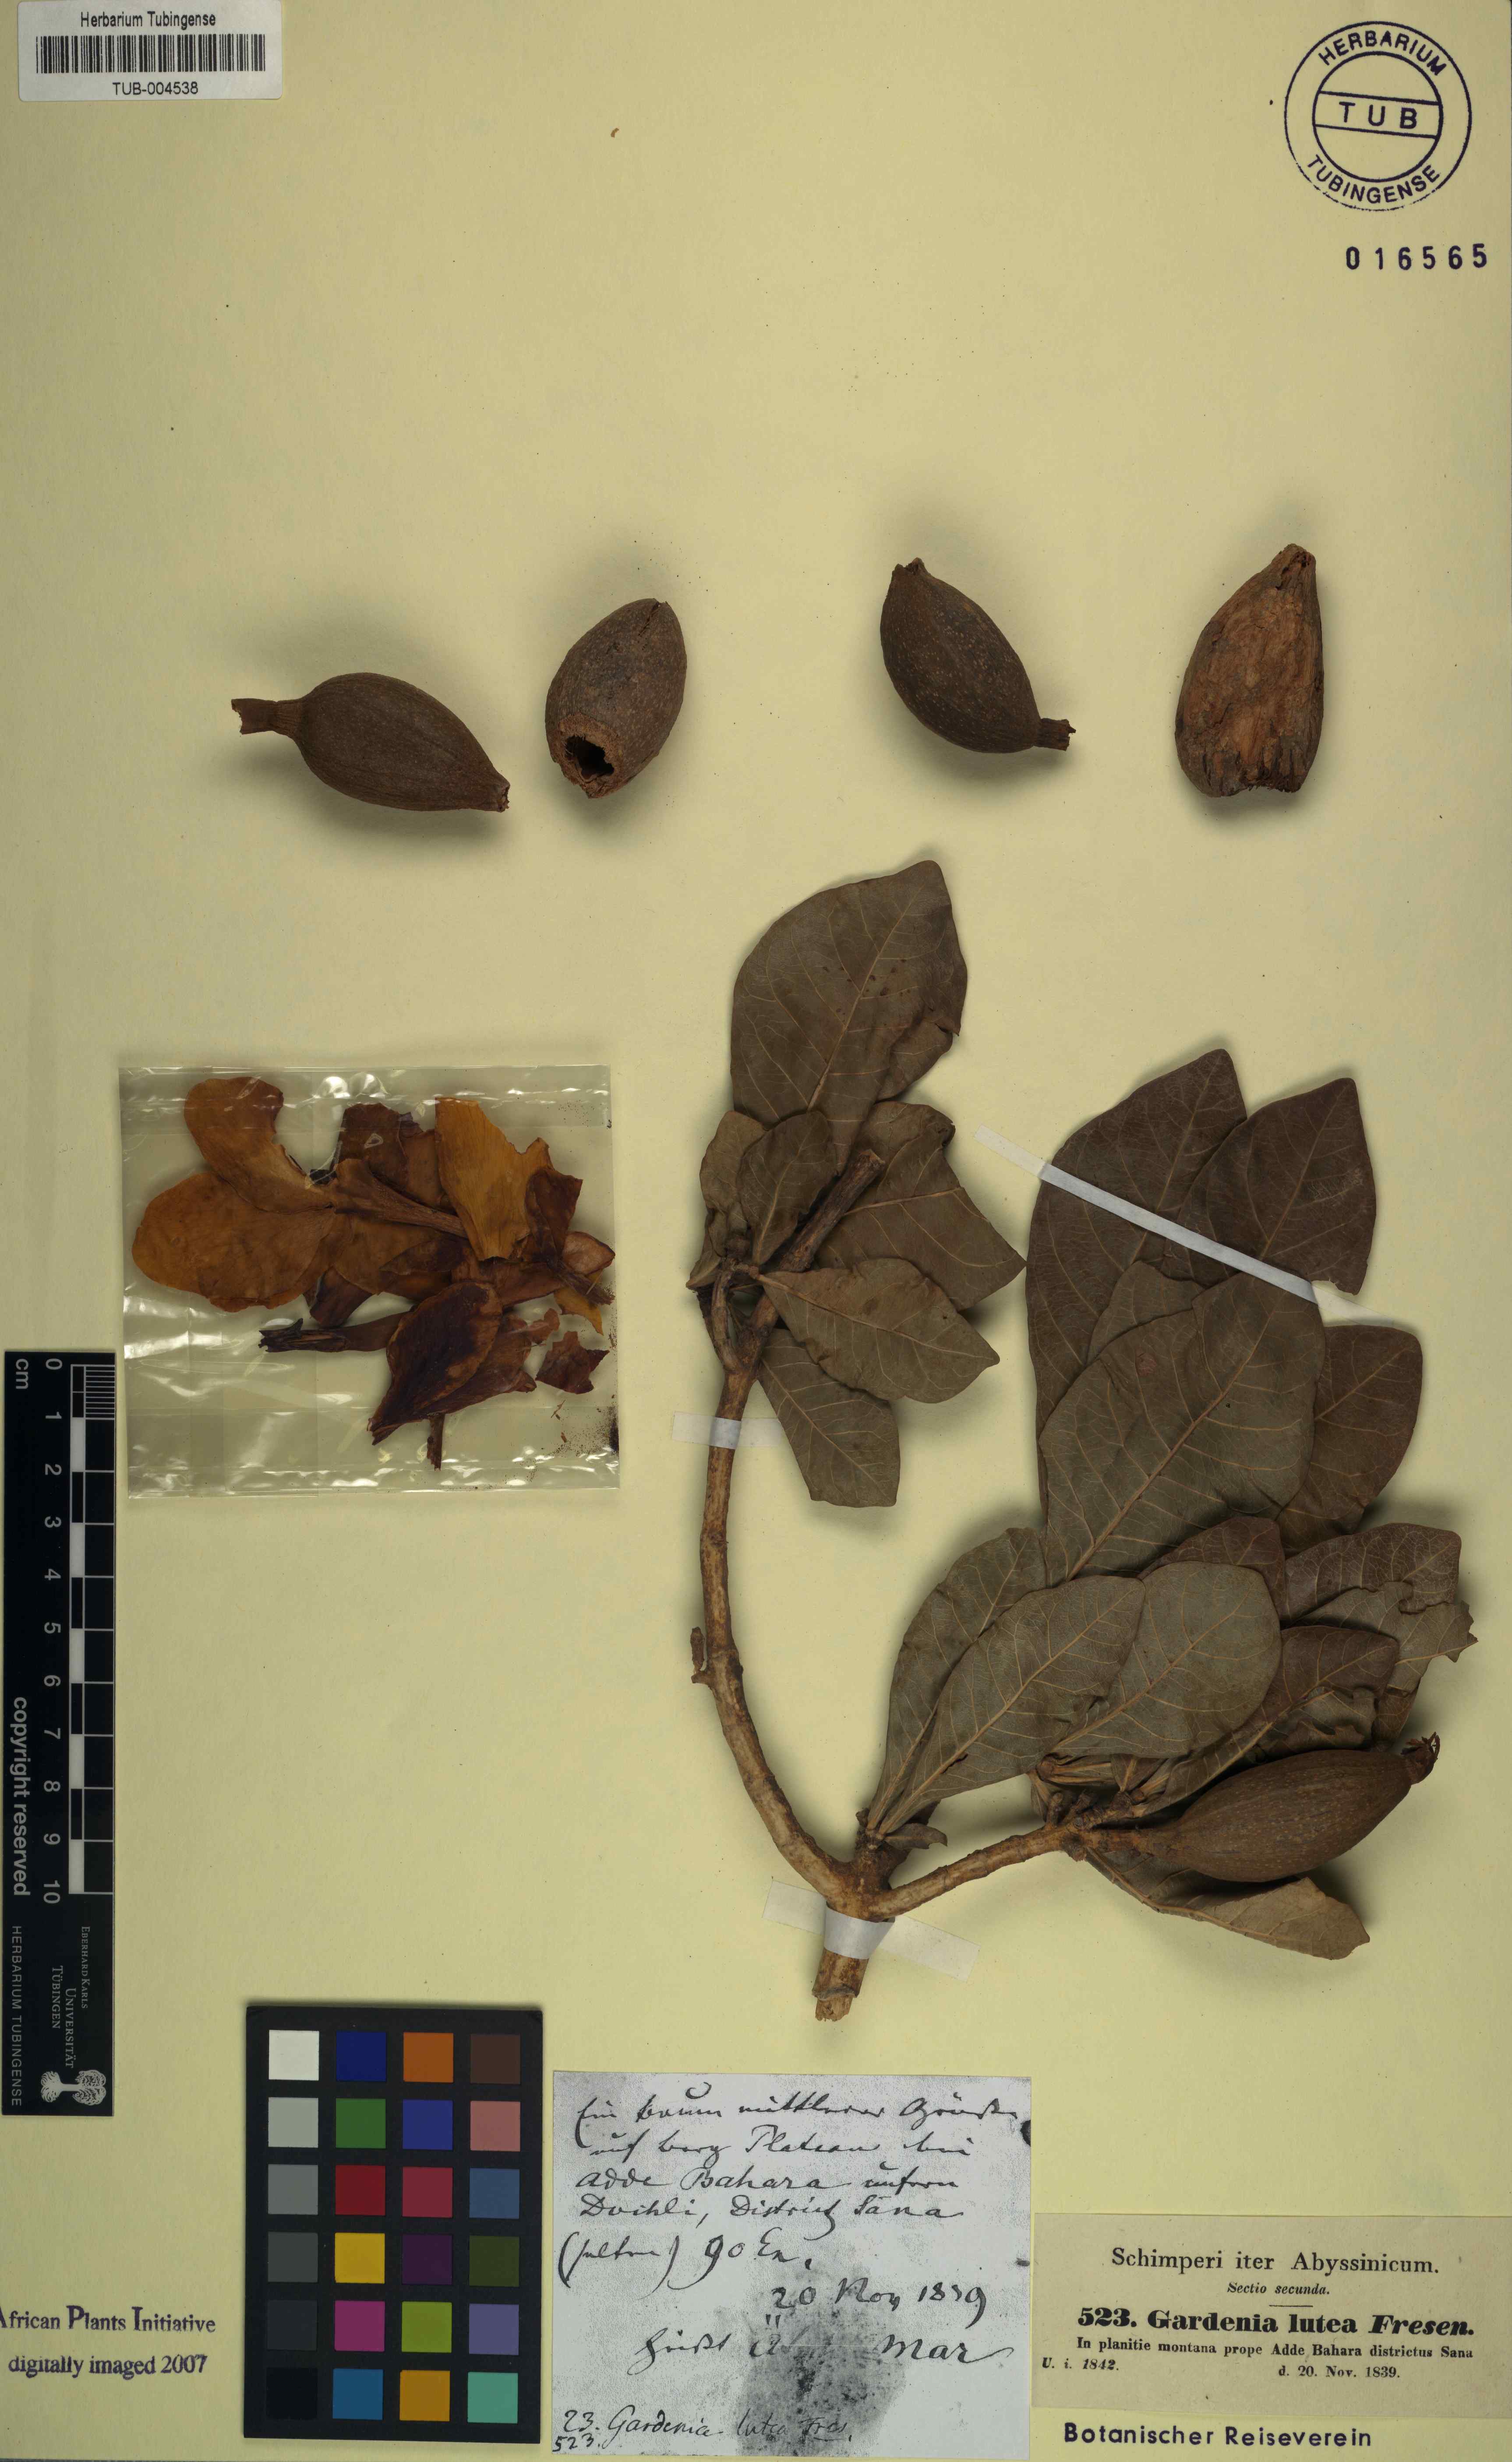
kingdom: Plantae
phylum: Tracheophyta
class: Magnoliopsida
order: Gentianales
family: Rubiaceae
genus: Gardenia
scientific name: Gardenia ternifolia
